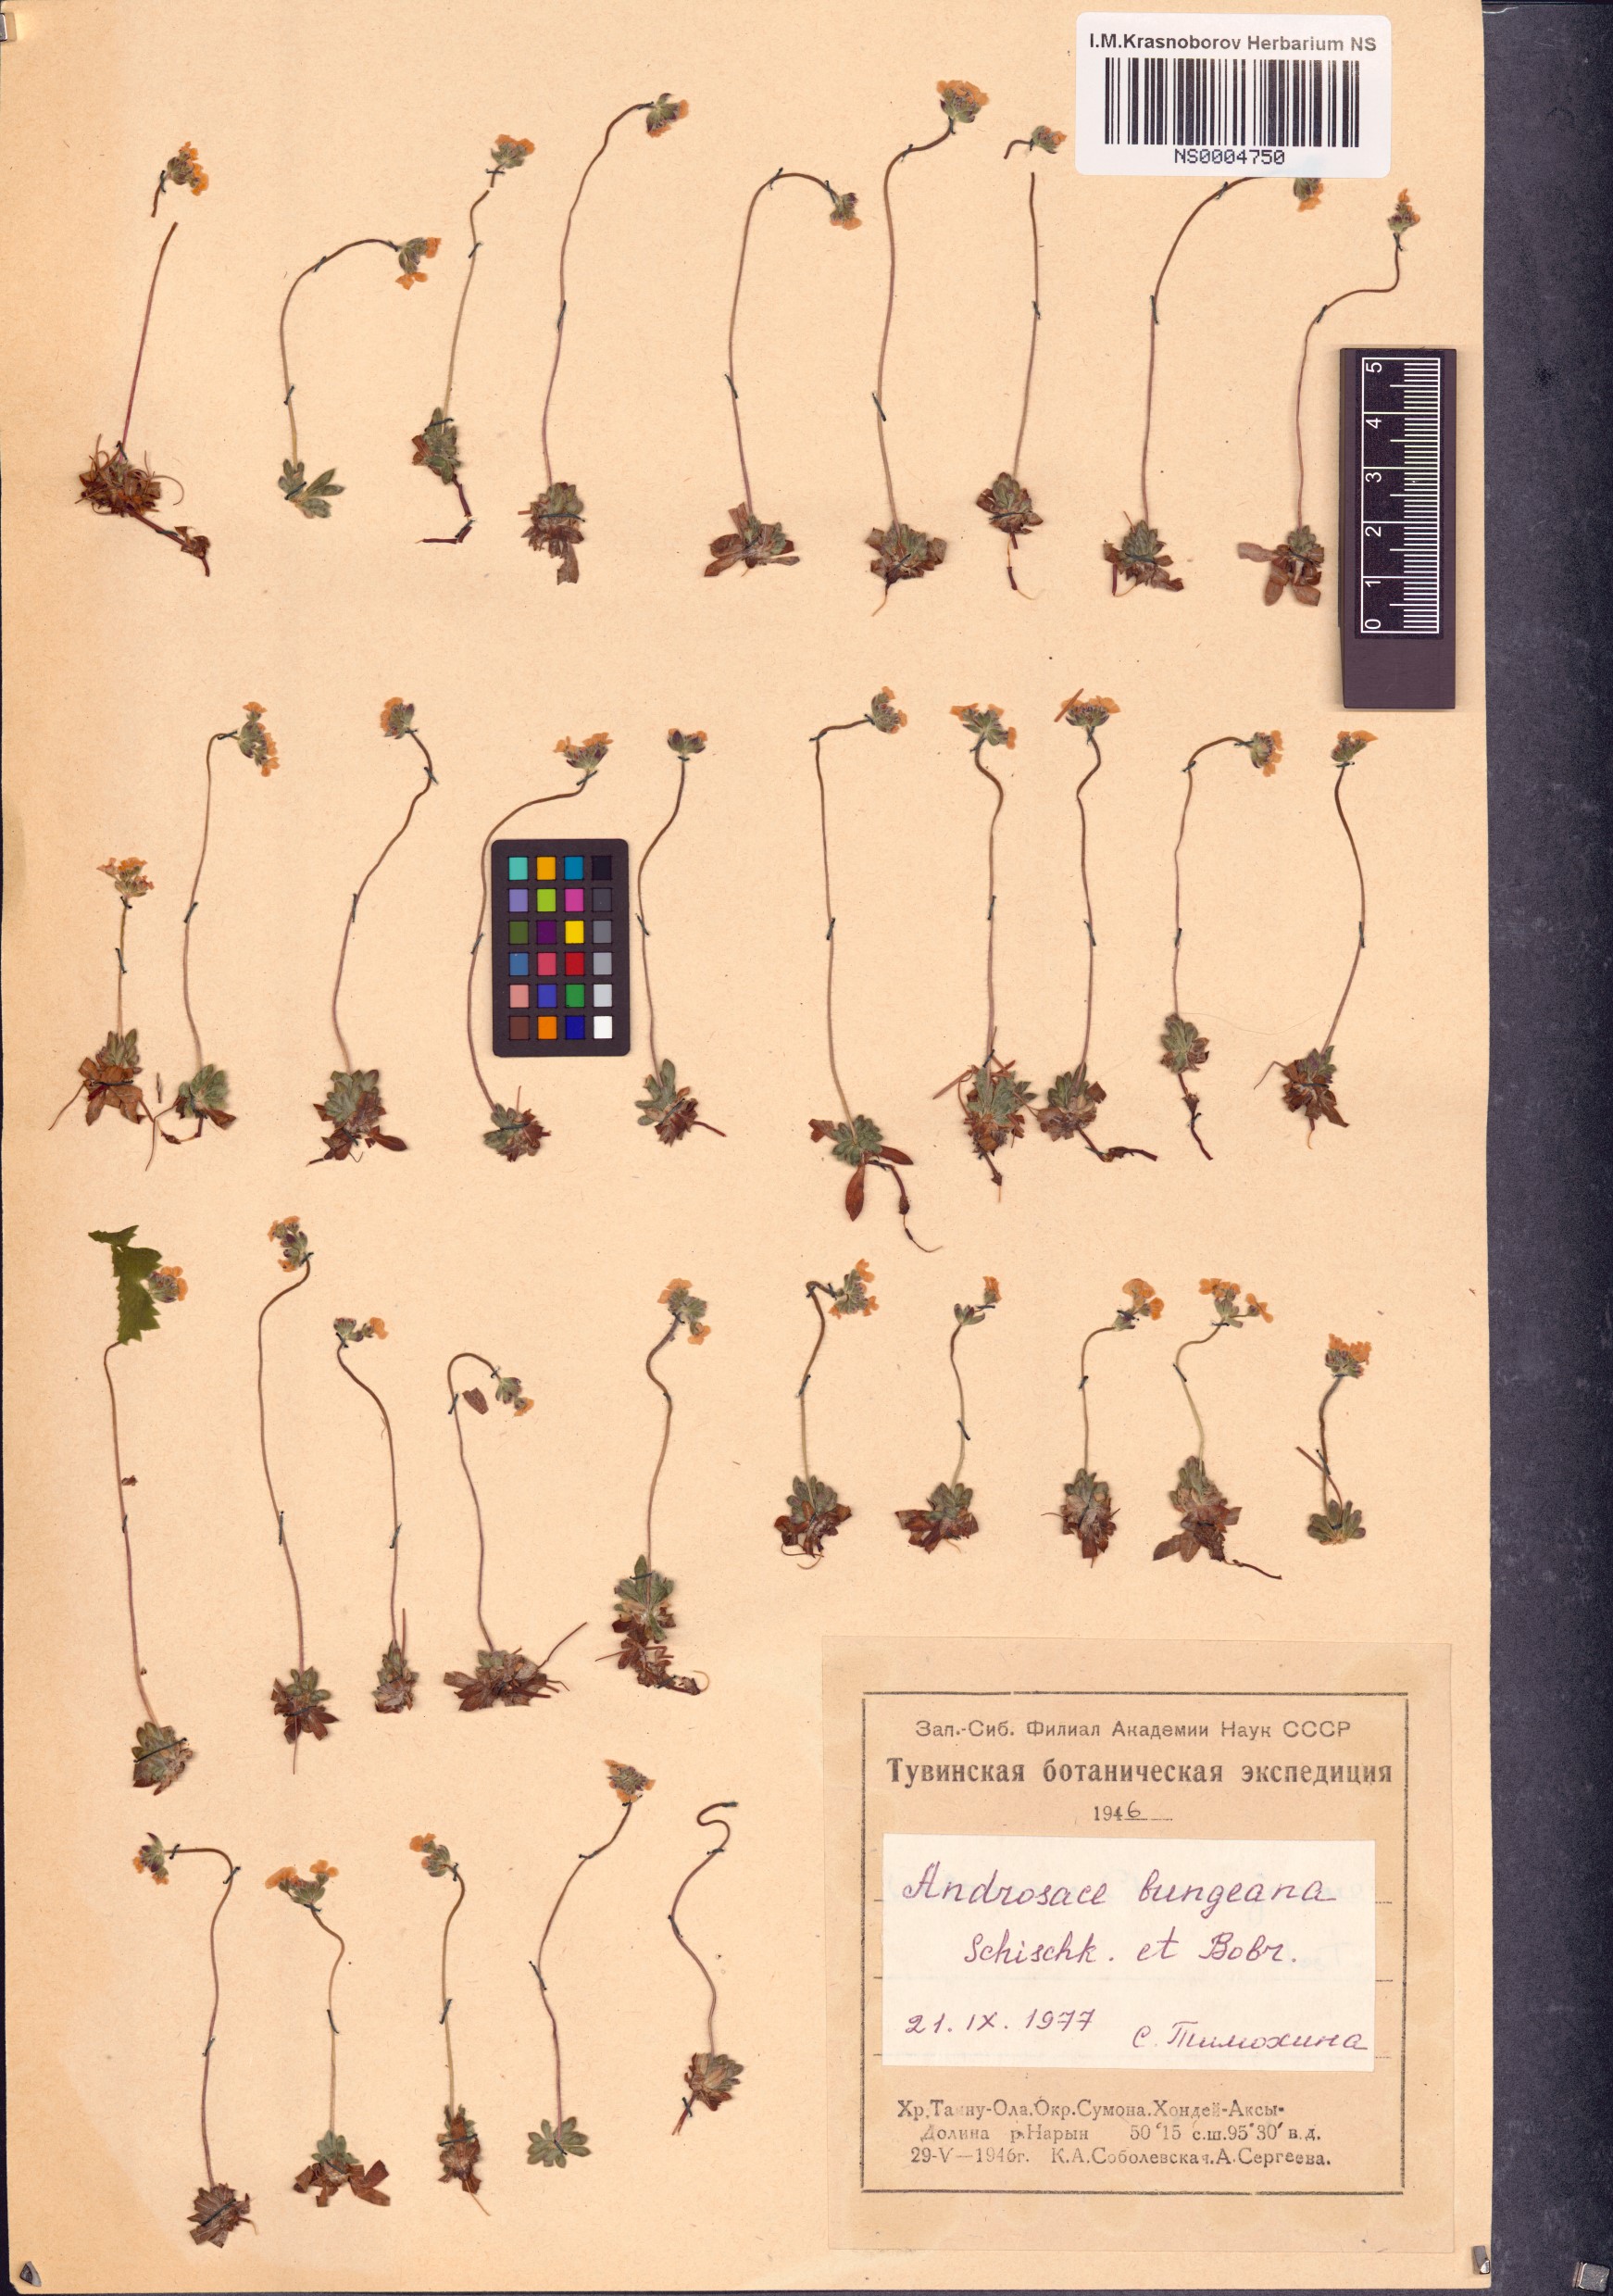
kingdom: Plantae
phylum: Tracheophyta
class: Magnoliopsida
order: Ericales
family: Primulaceae
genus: Androsace
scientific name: Androsace bungeana
